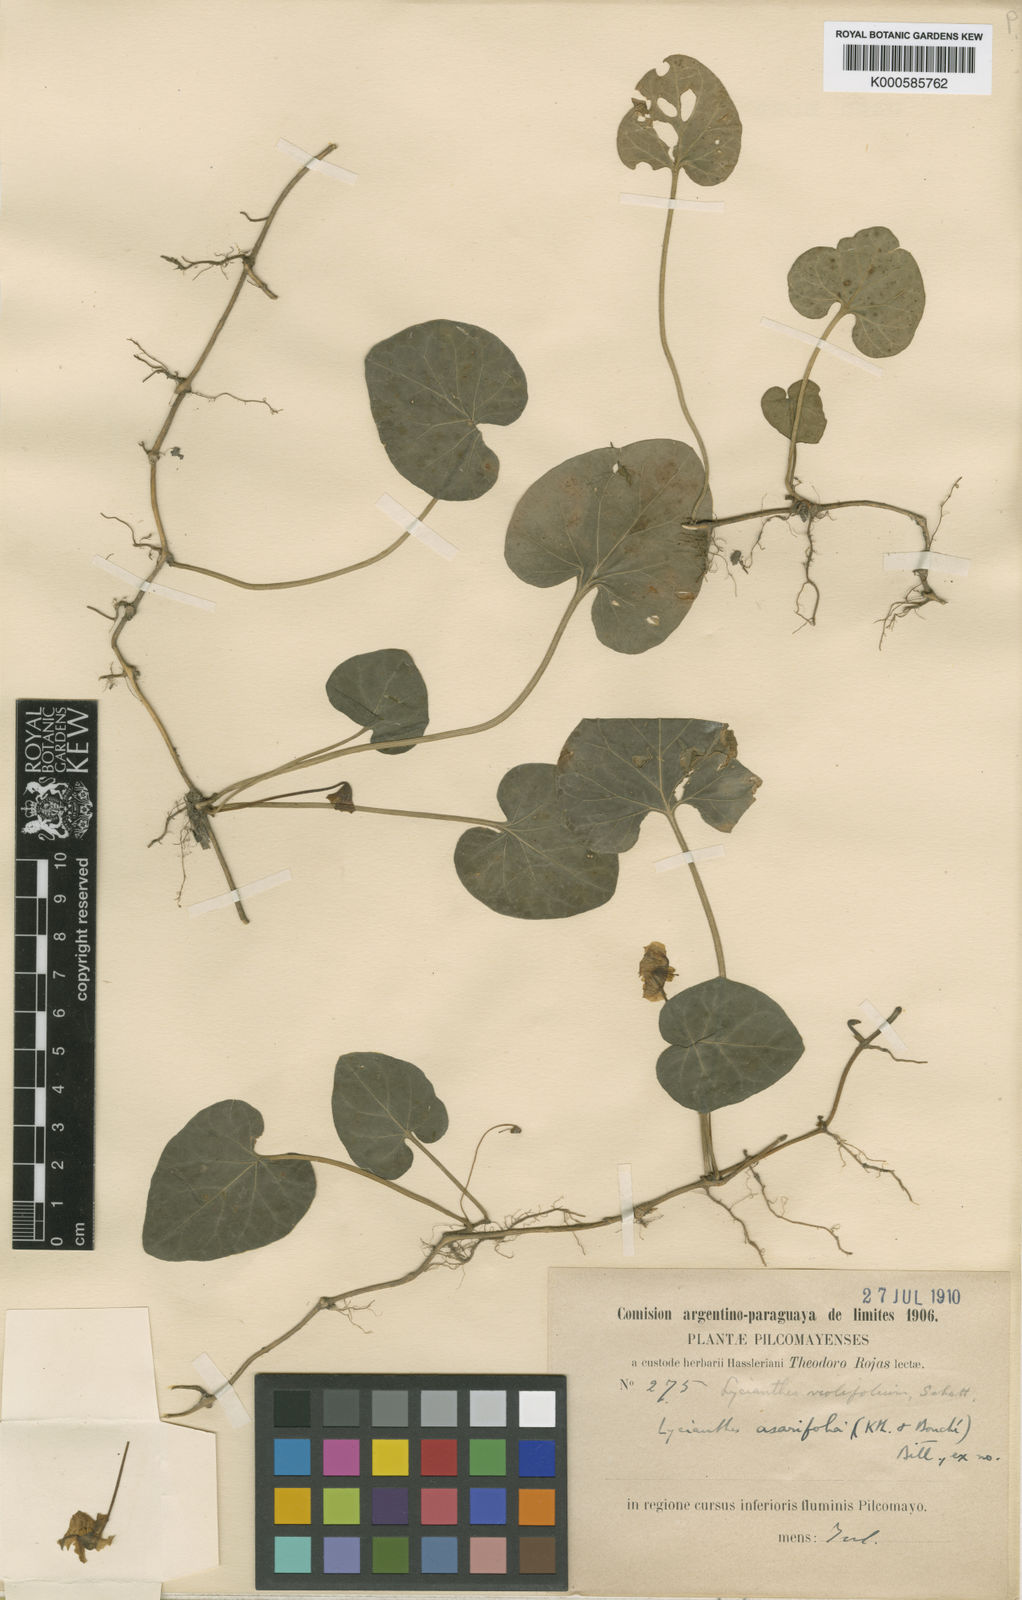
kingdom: Plantae
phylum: Tracheophyta
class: Magnoliopsida
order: Solanales
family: Solanaceae
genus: Lycianthes
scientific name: Lycianthes
